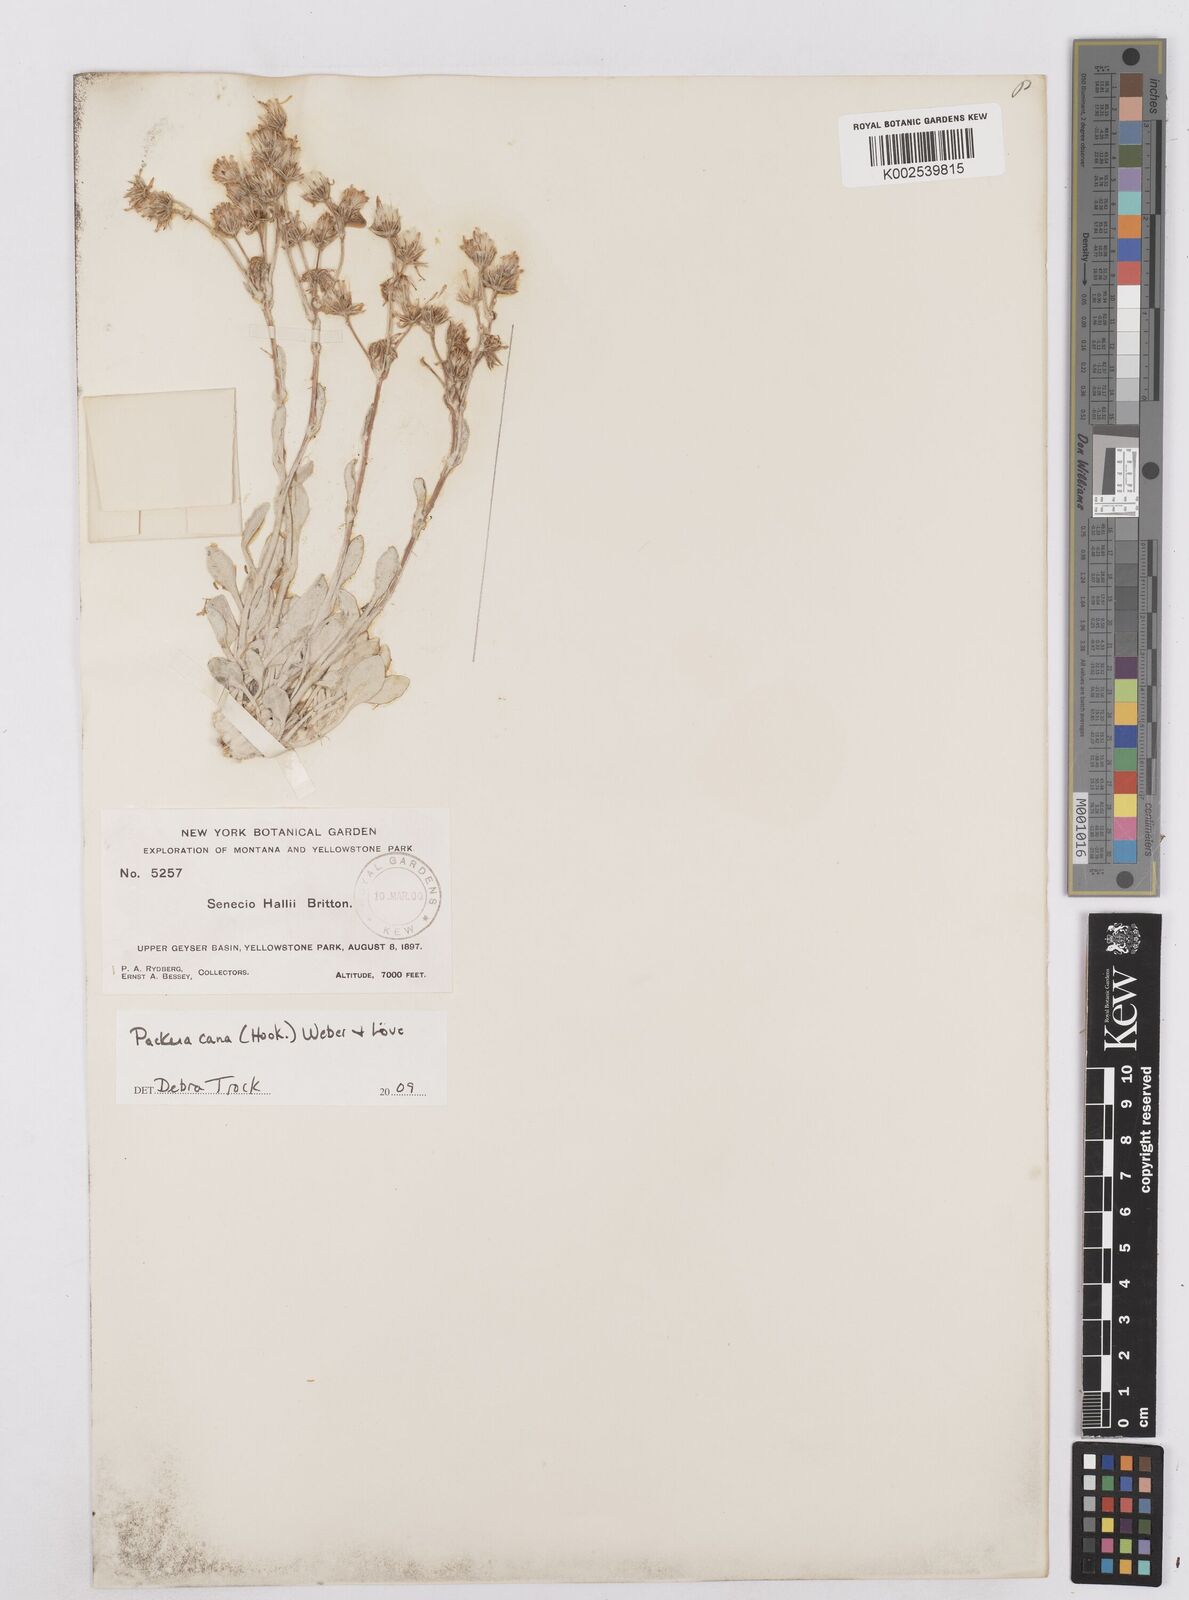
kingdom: Plantae
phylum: Tracheophyta
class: Magnoliopsida
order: Asterales
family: Asteraceae
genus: Packera
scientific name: Packera cana
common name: Woolly groundsel
